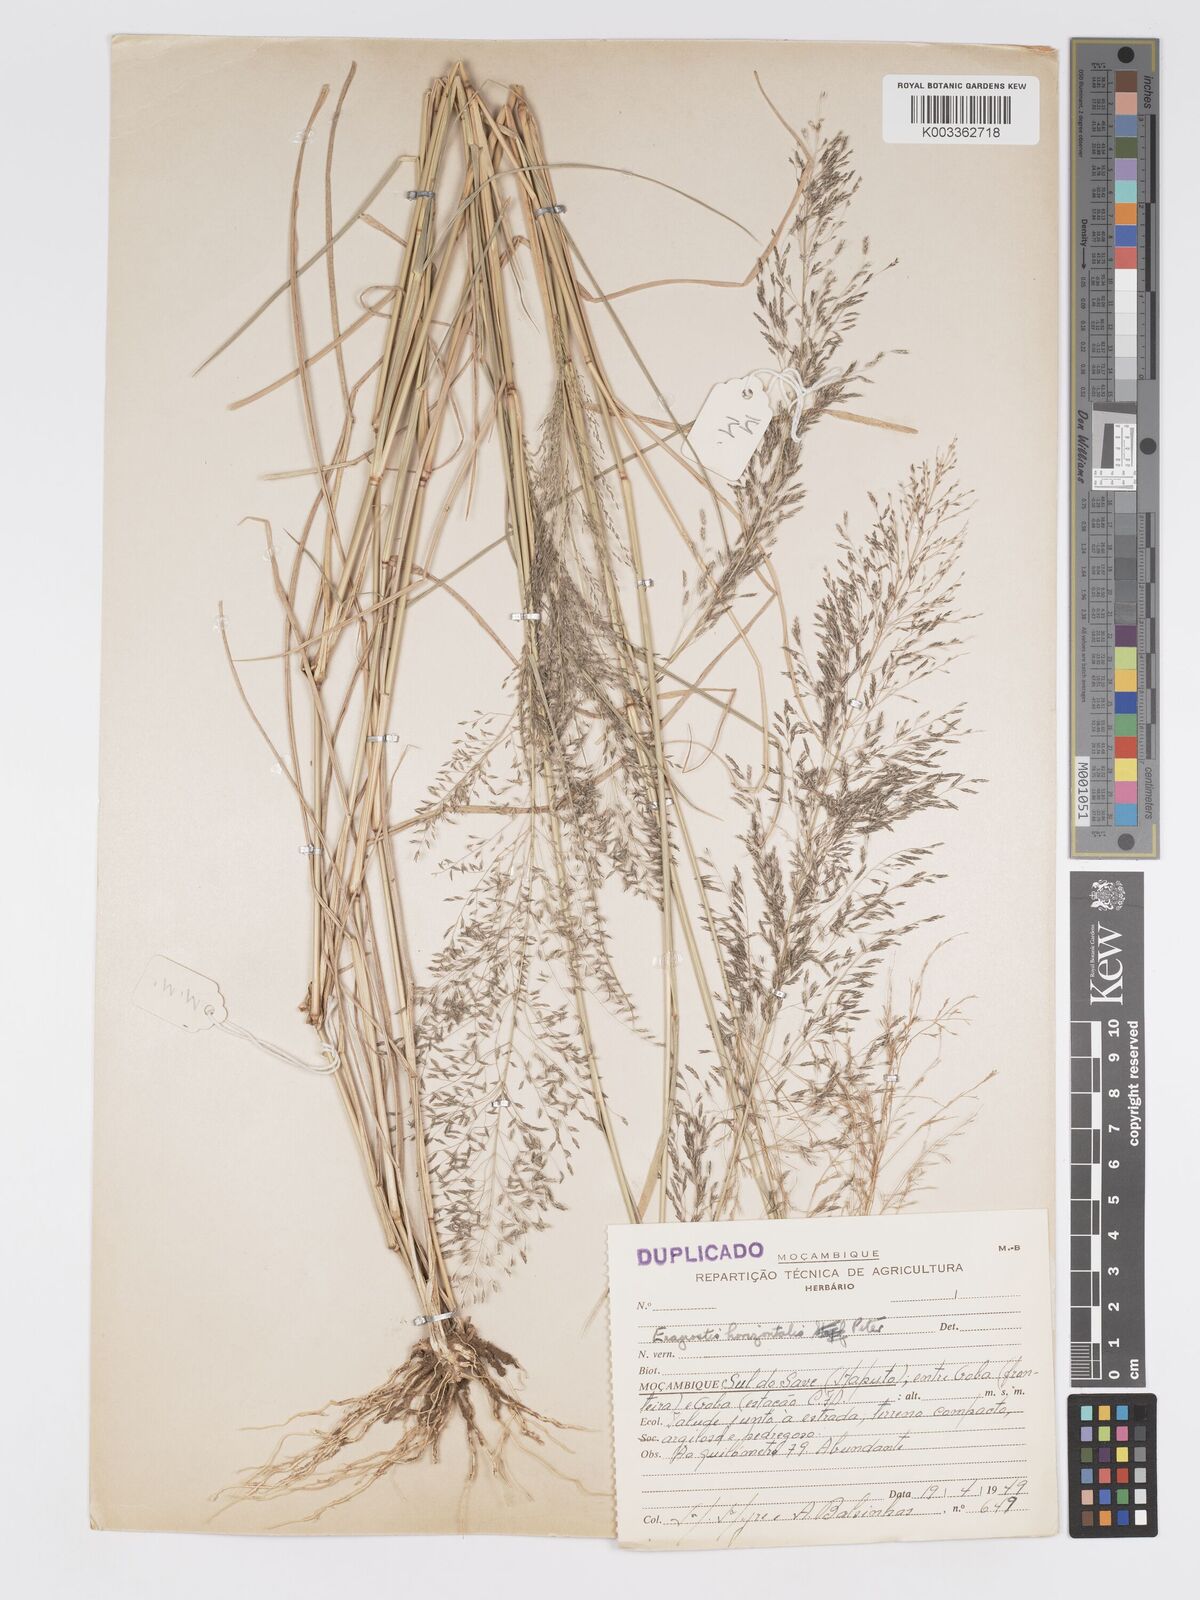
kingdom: Plantae
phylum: Tracheophyta
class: Liliopsida
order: Poales
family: Poaceae
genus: Eragrostis
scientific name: Eragrostis cylindriflora
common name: Cylinderflower lovegrass
